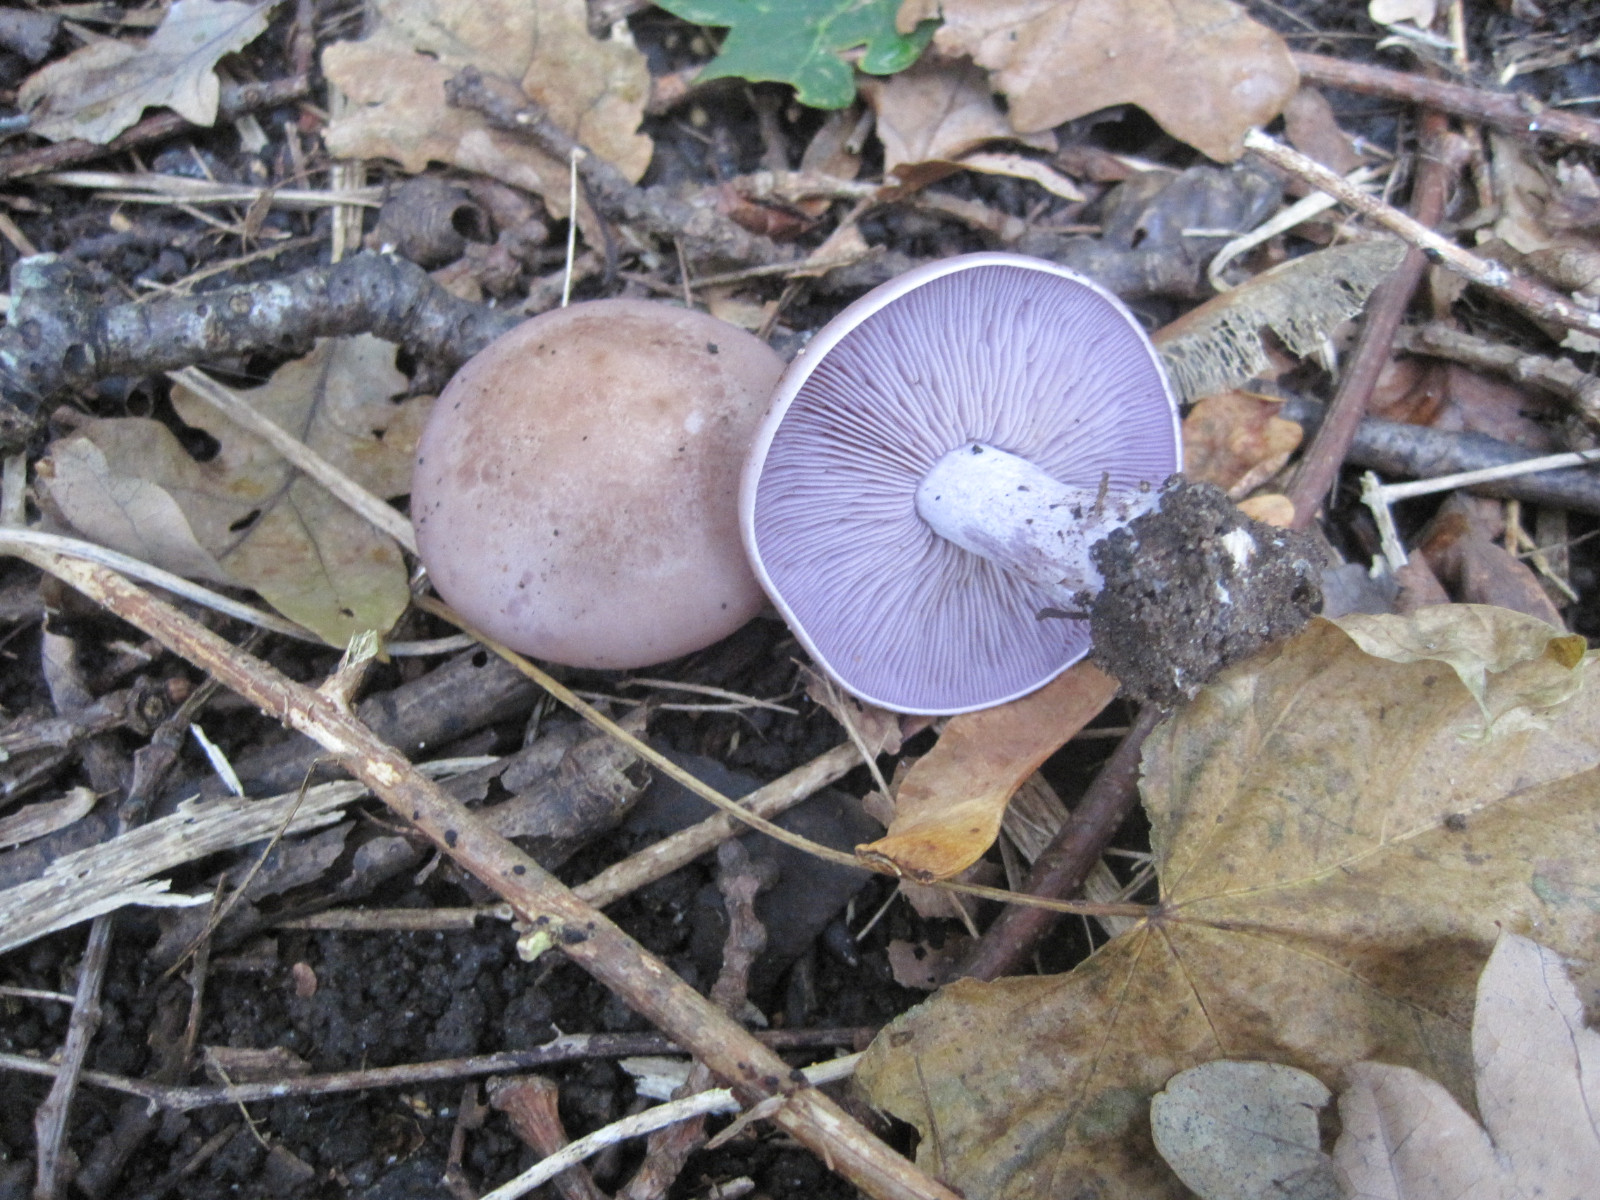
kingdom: Fungi
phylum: Basidiomycota
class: Agaricomycetes
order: Agaricales
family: Tricholomataceae
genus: Lepista
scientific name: Lepista nuda
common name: violet hekseringshat
